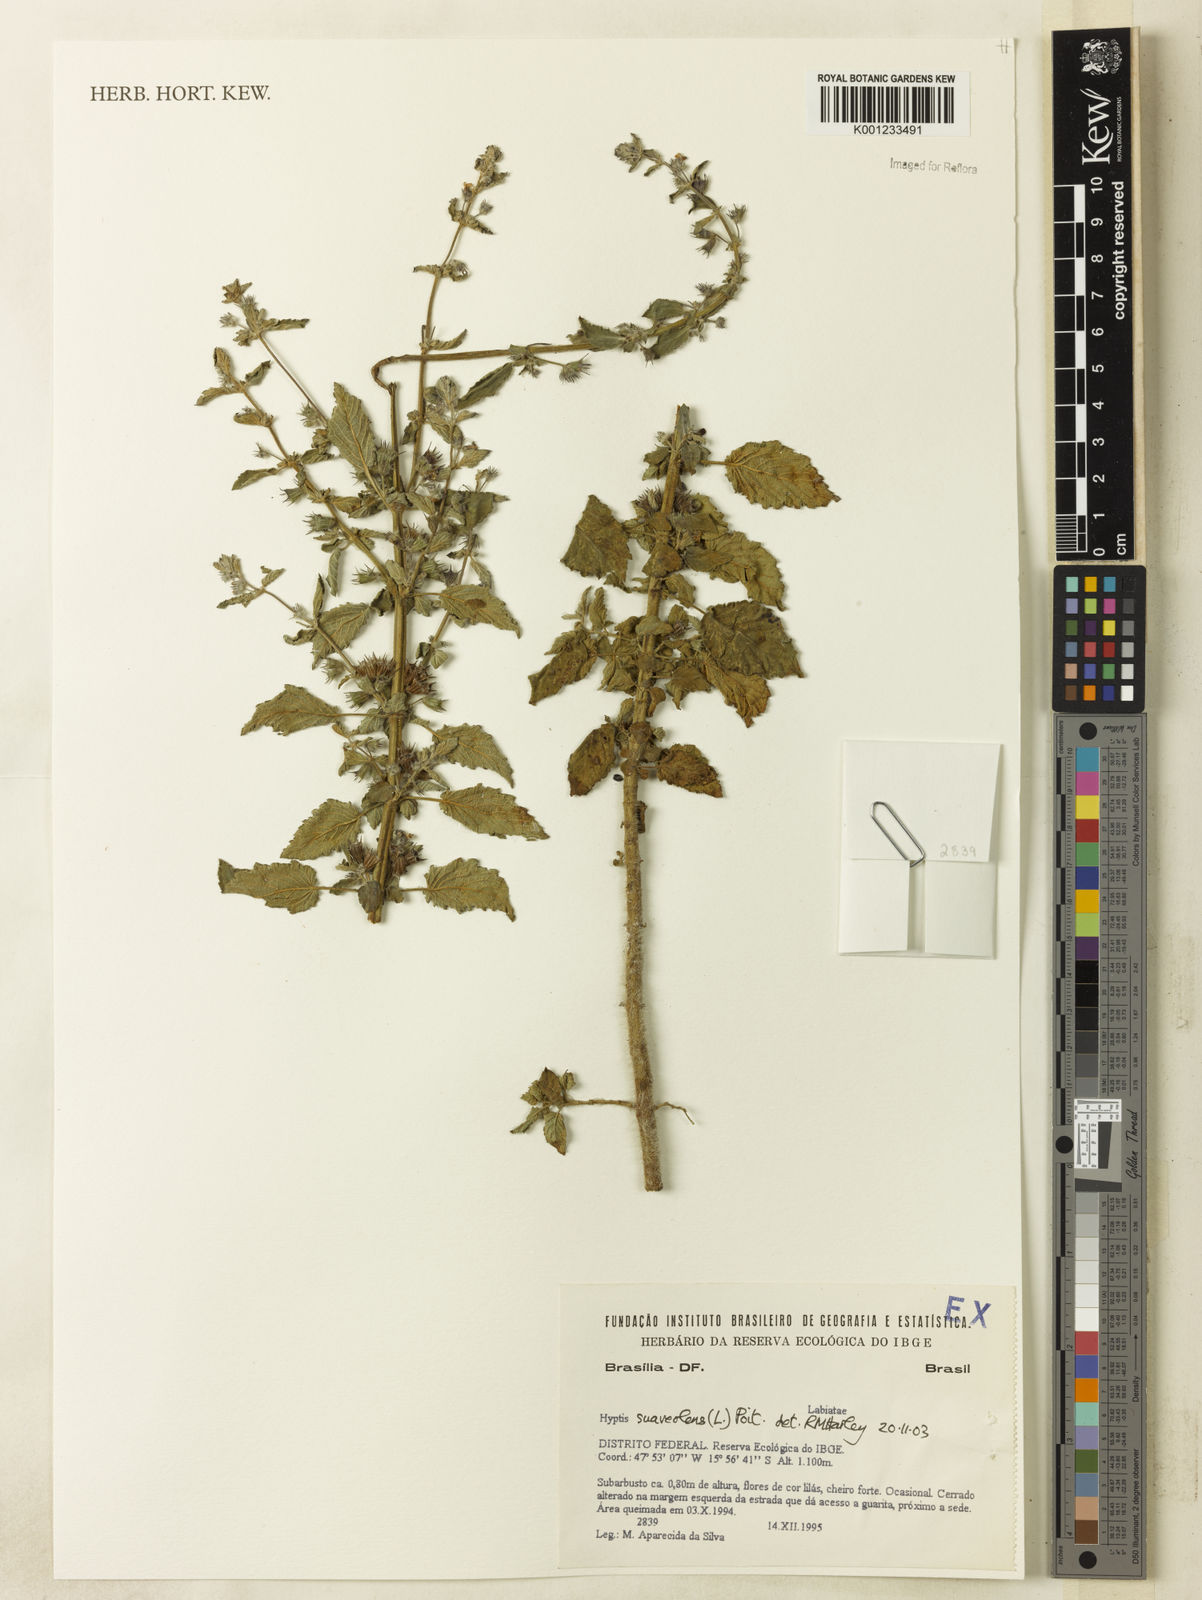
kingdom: Plantae
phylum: Tracheophyta
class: Magnoliopsida
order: Lamiales
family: Lamiaceae
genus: Mesosphaerum
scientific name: Mesosphaerum suaveolens
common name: Pignut
